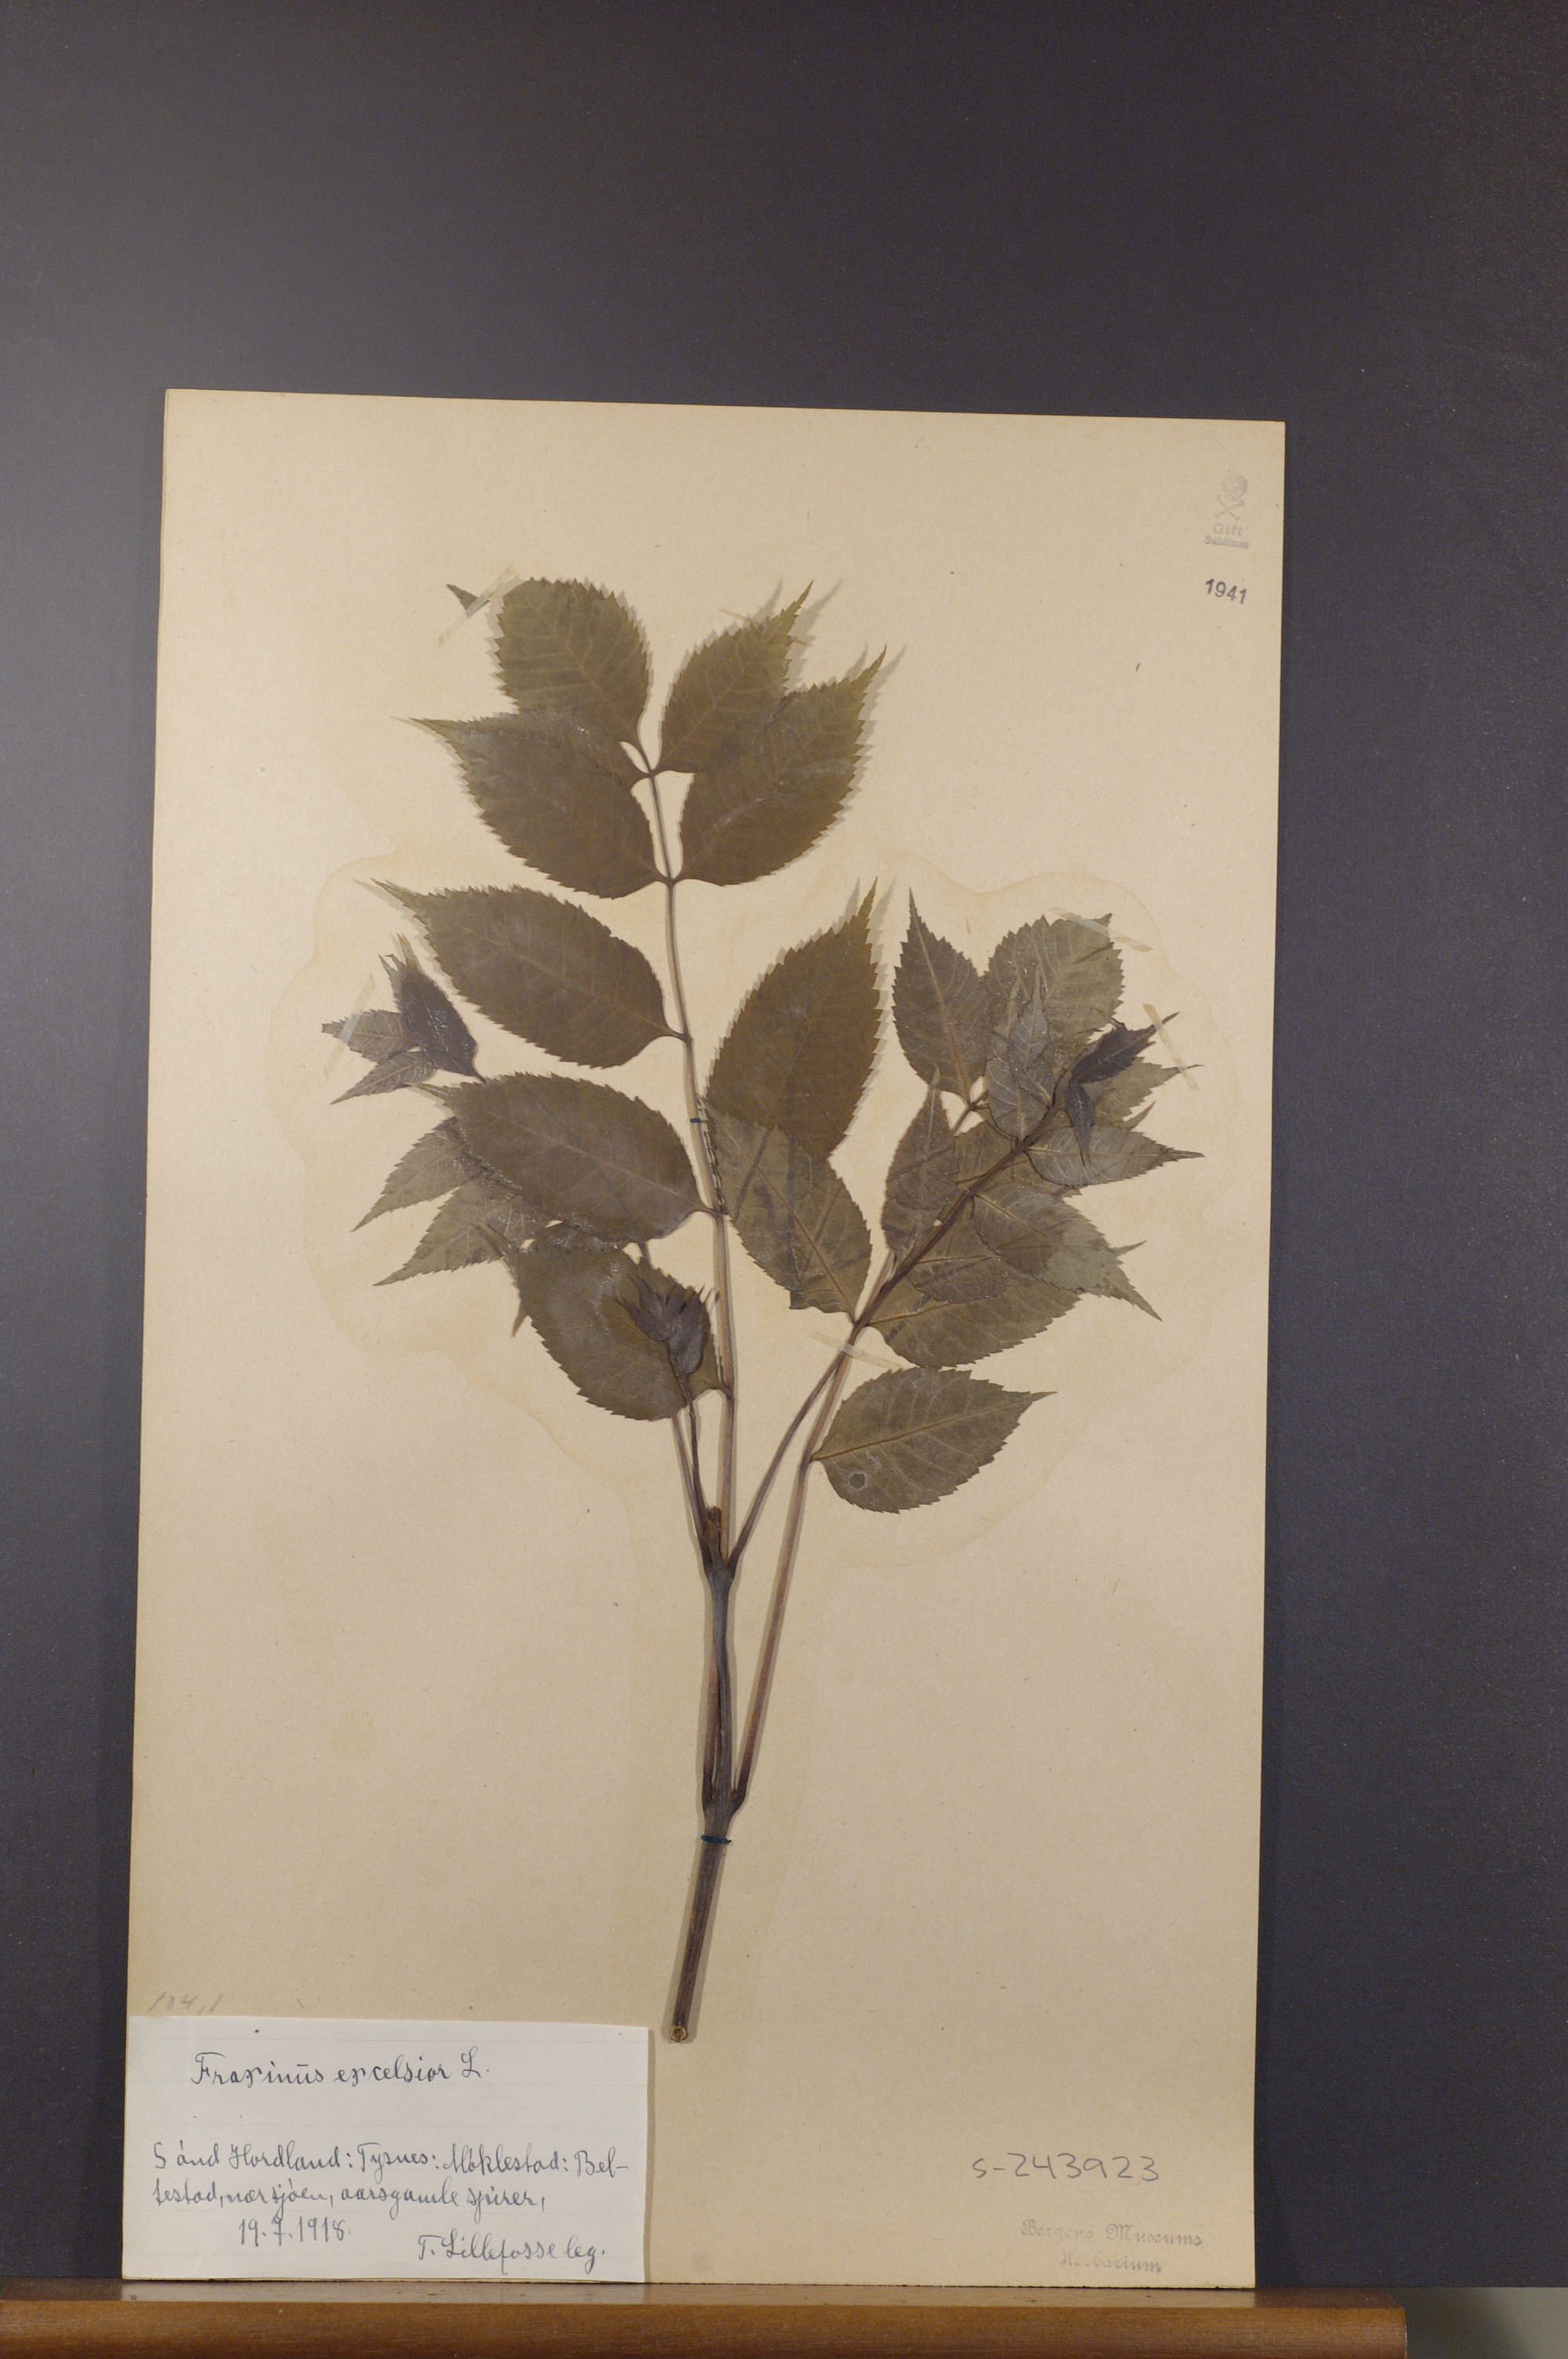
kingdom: Plantae
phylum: Tracheophyta
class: Magnoliopsida
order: Lamiales
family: Oleaceae
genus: Fraxinus
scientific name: Fraxinus excelsior
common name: European ash
